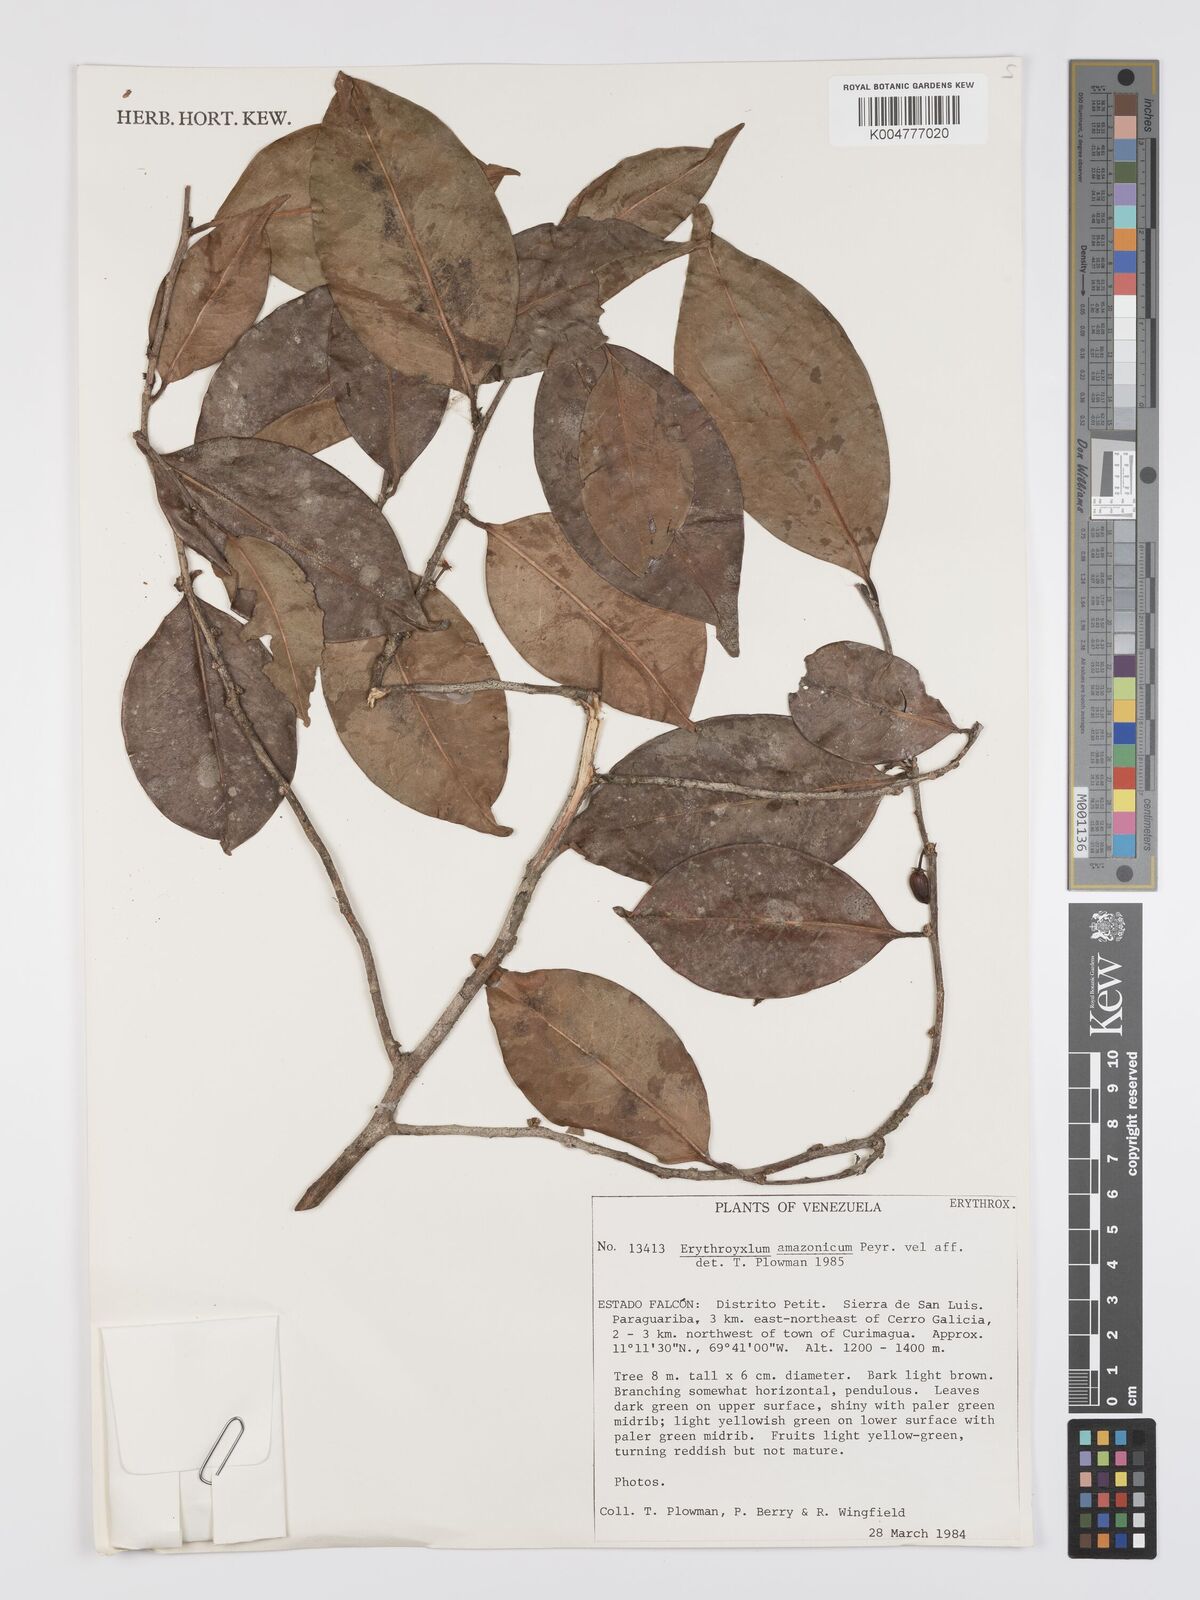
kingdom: Plantae
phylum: Tracheophyta
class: Magnoliopsida
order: Malpighiales
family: Erythroxylaceae
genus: Erythroxylum
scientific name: Erythroxylum amazonicum
